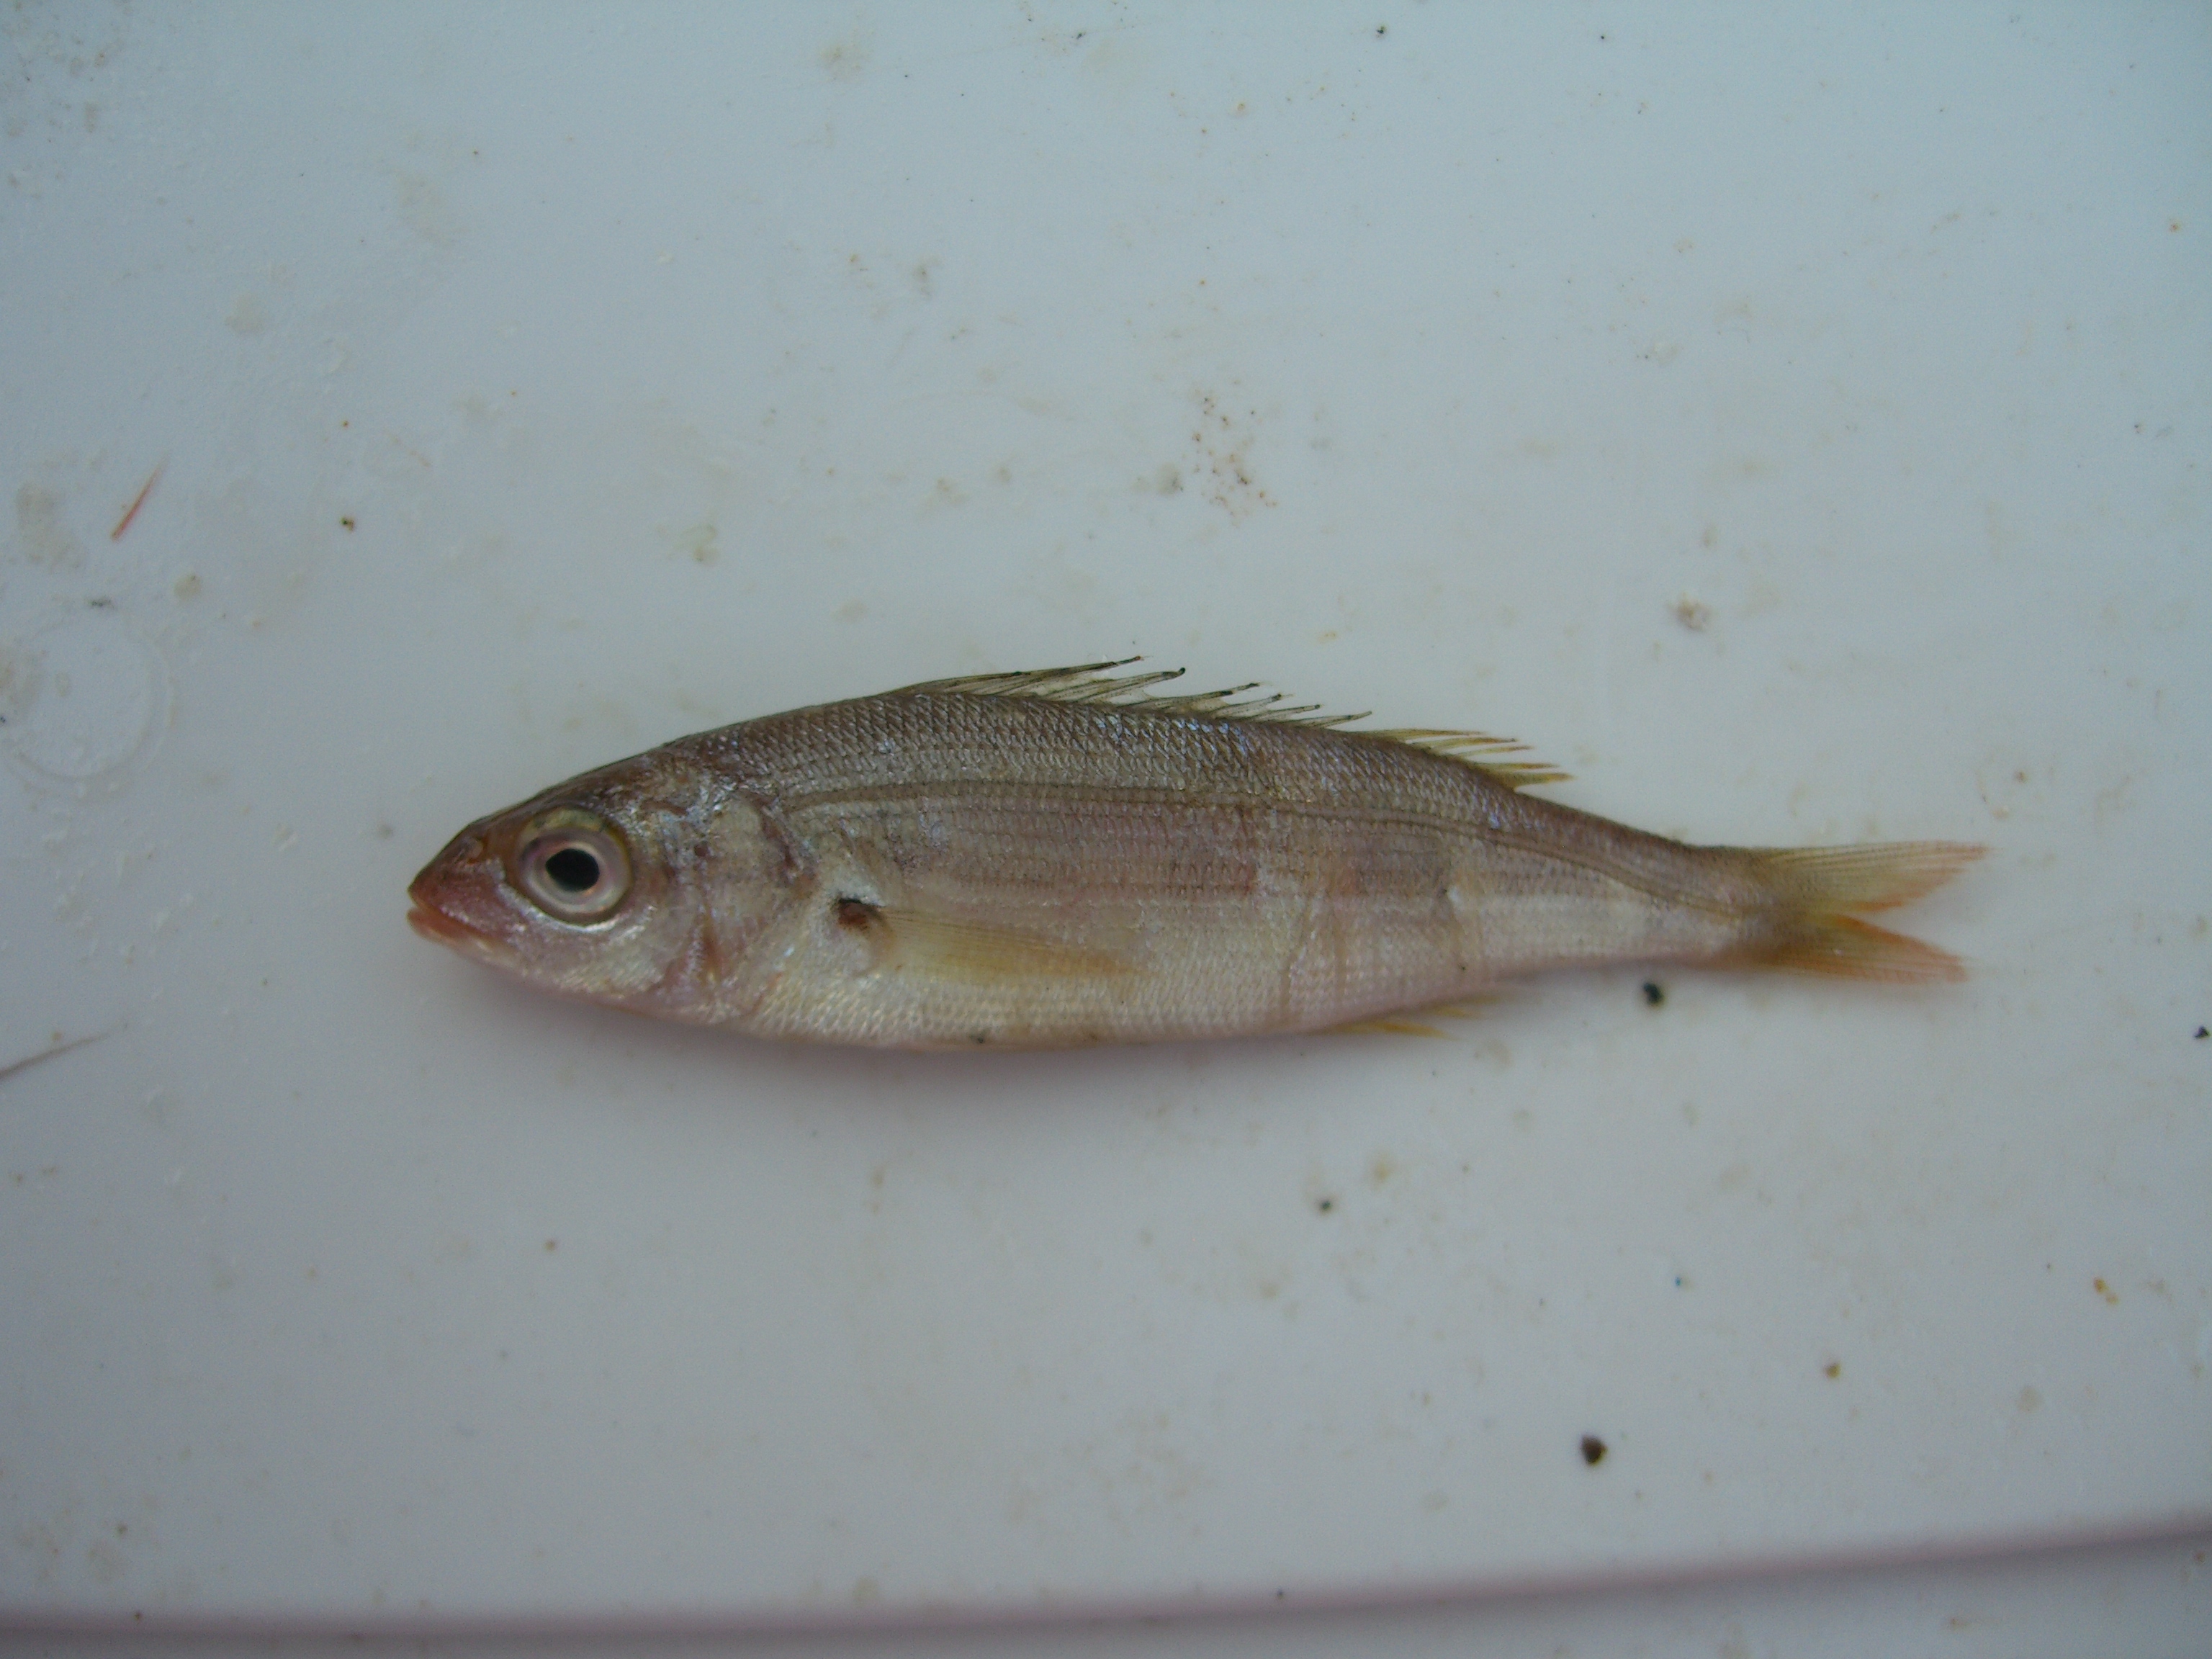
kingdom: Animalia
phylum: Chordata
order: Perciformes
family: Sparidae
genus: Pagellus
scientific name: Pagellus acarne
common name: Axillary sea-bream
